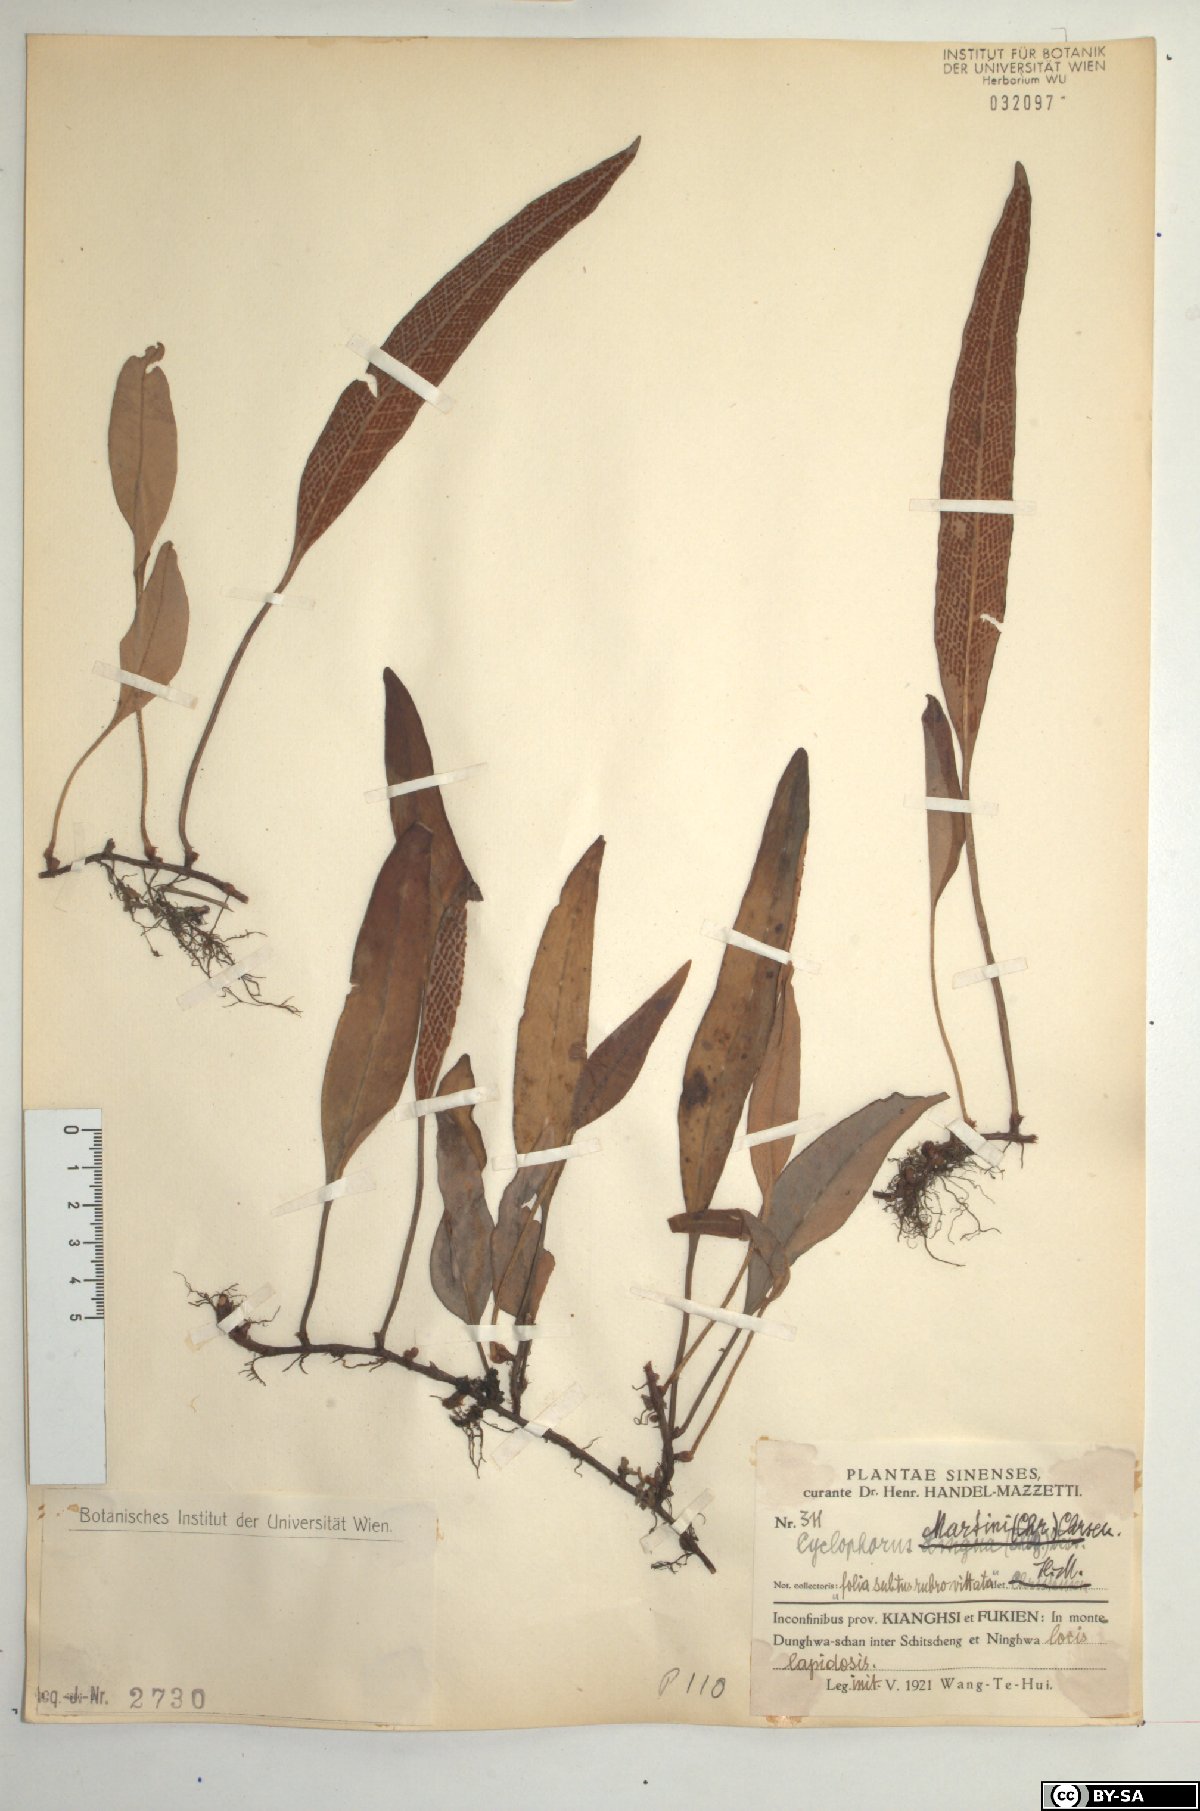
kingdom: Plantae
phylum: Tracheophyta
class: Polypodiopsida
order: Polypodiales
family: Polypodiaceae
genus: Pyrrosia
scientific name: Pyrrosia lingua
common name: Felt fern
